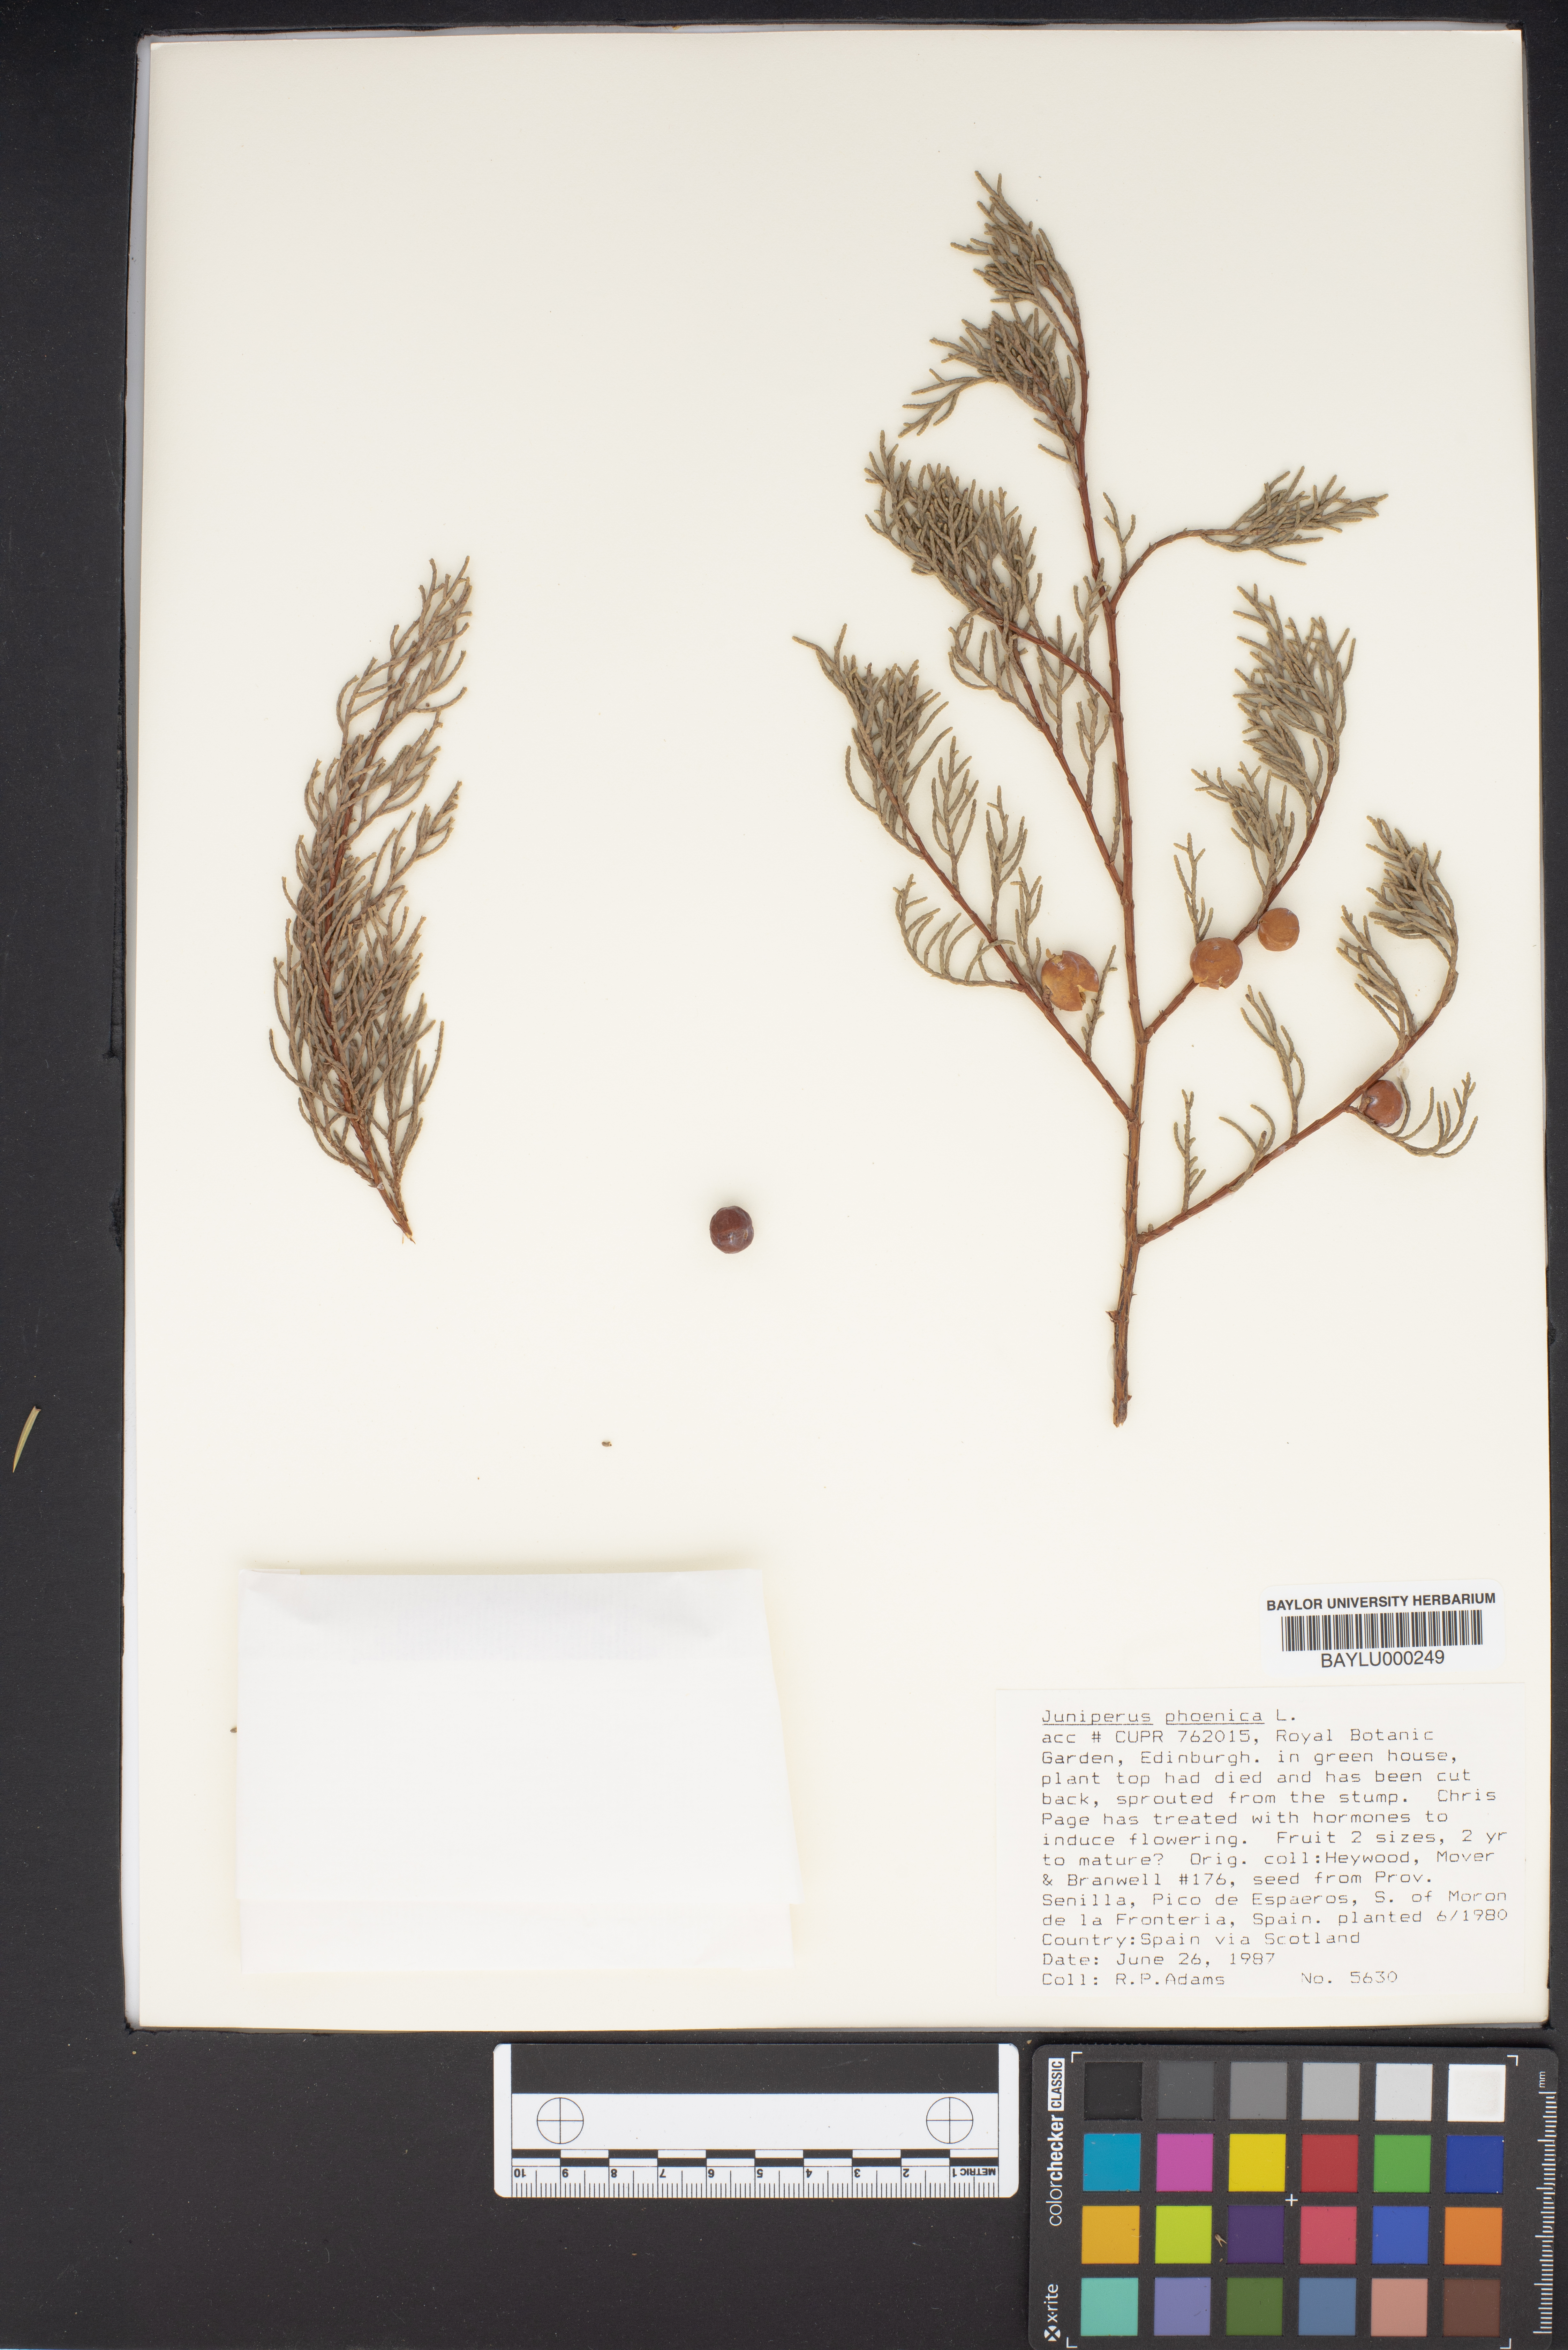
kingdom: Plantae
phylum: Tracheophyta
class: Pinopsida
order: Pinales
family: Cupressaceae
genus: Juniperus
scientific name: Juniperus phoenicea
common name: Phoenician juniper
